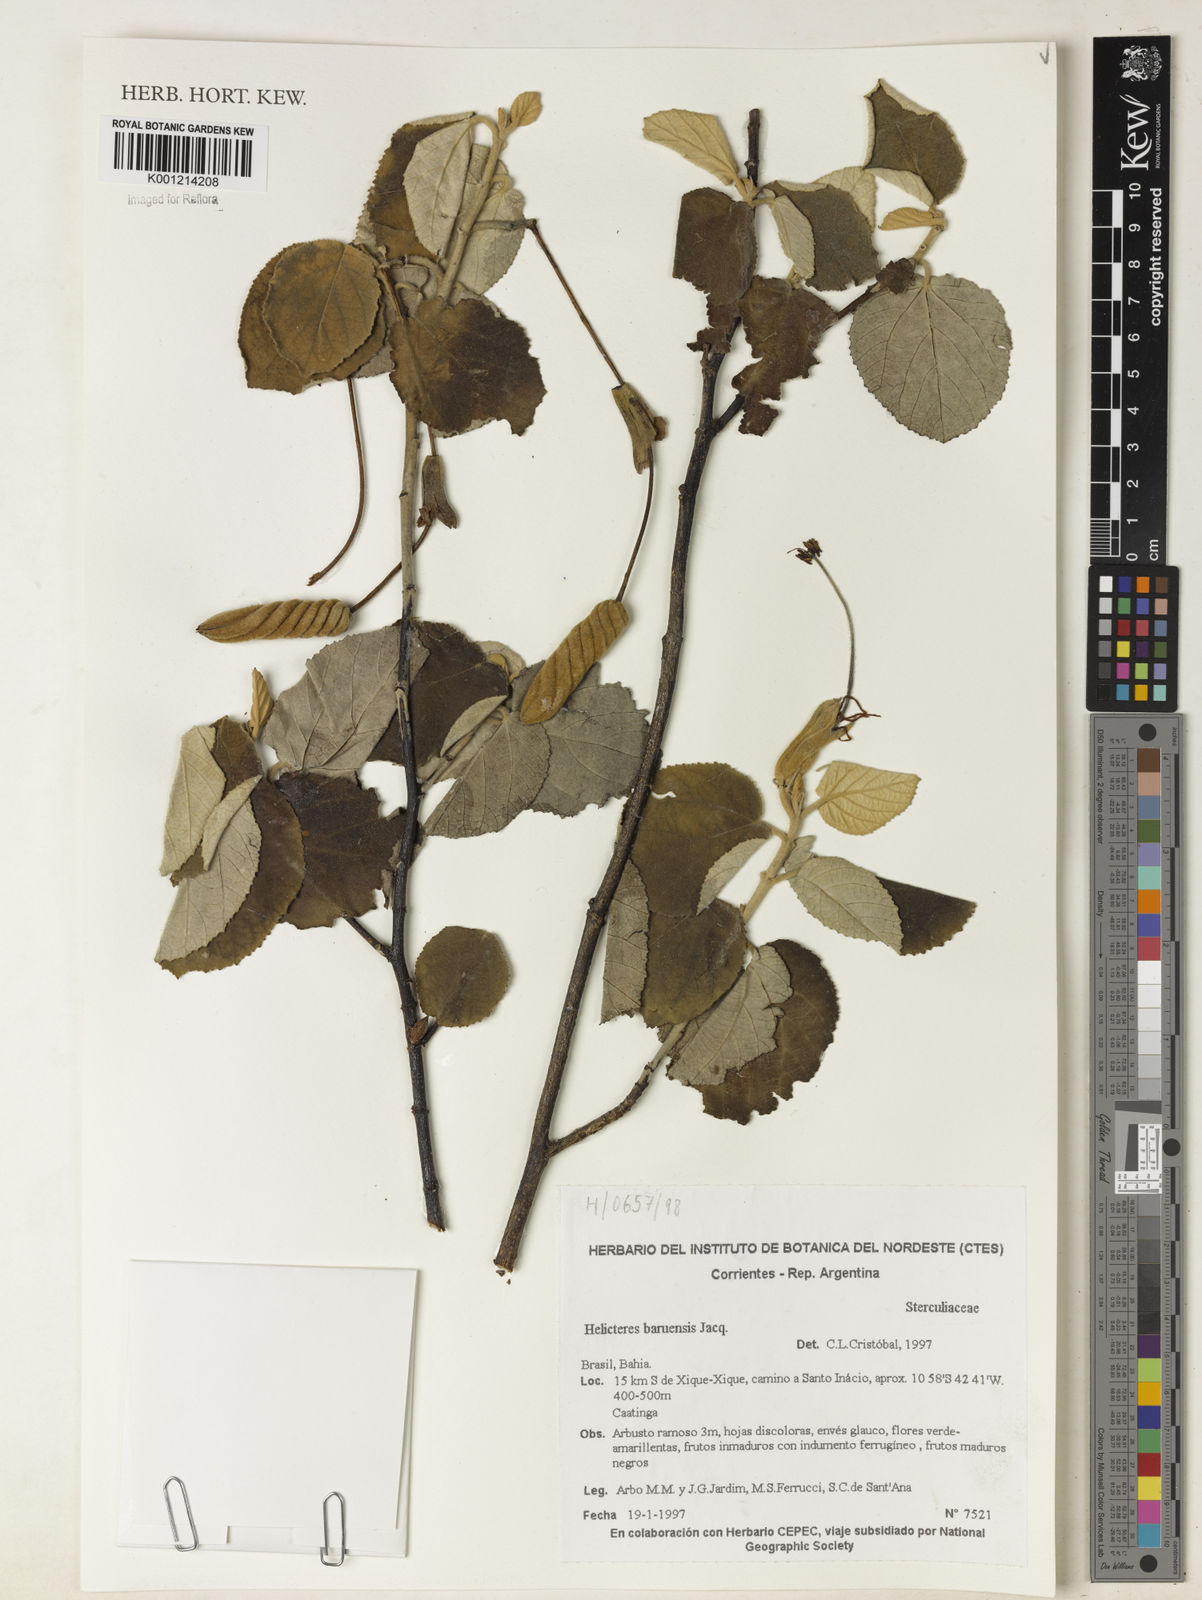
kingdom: Plantae
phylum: Tracheophyta
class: Magnoliopsida
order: Malvales
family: Malvaceae
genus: Helicteres
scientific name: Helicteres baruensis
